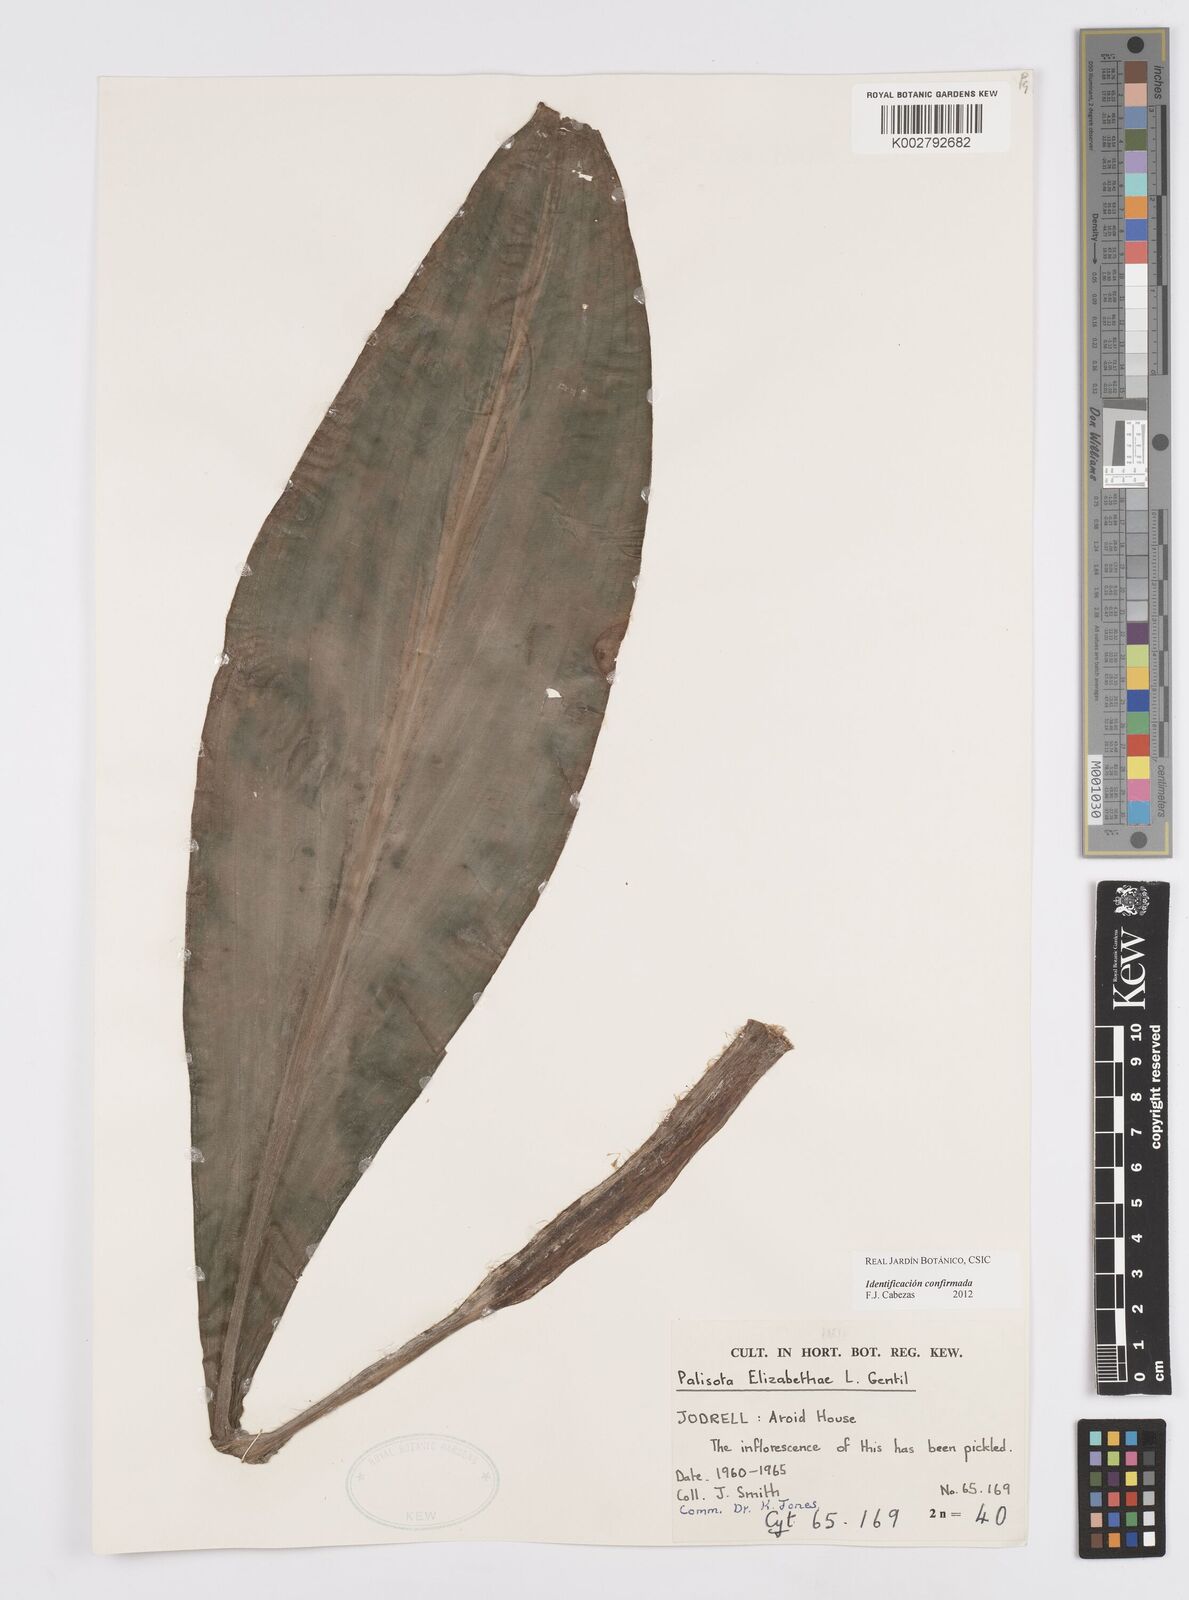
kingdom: Plantae
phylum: Tracheophyta
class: Liliopsida
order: Commelinales
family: Commelinaceae
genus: Palisota
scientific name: Palisota elizabethiae
